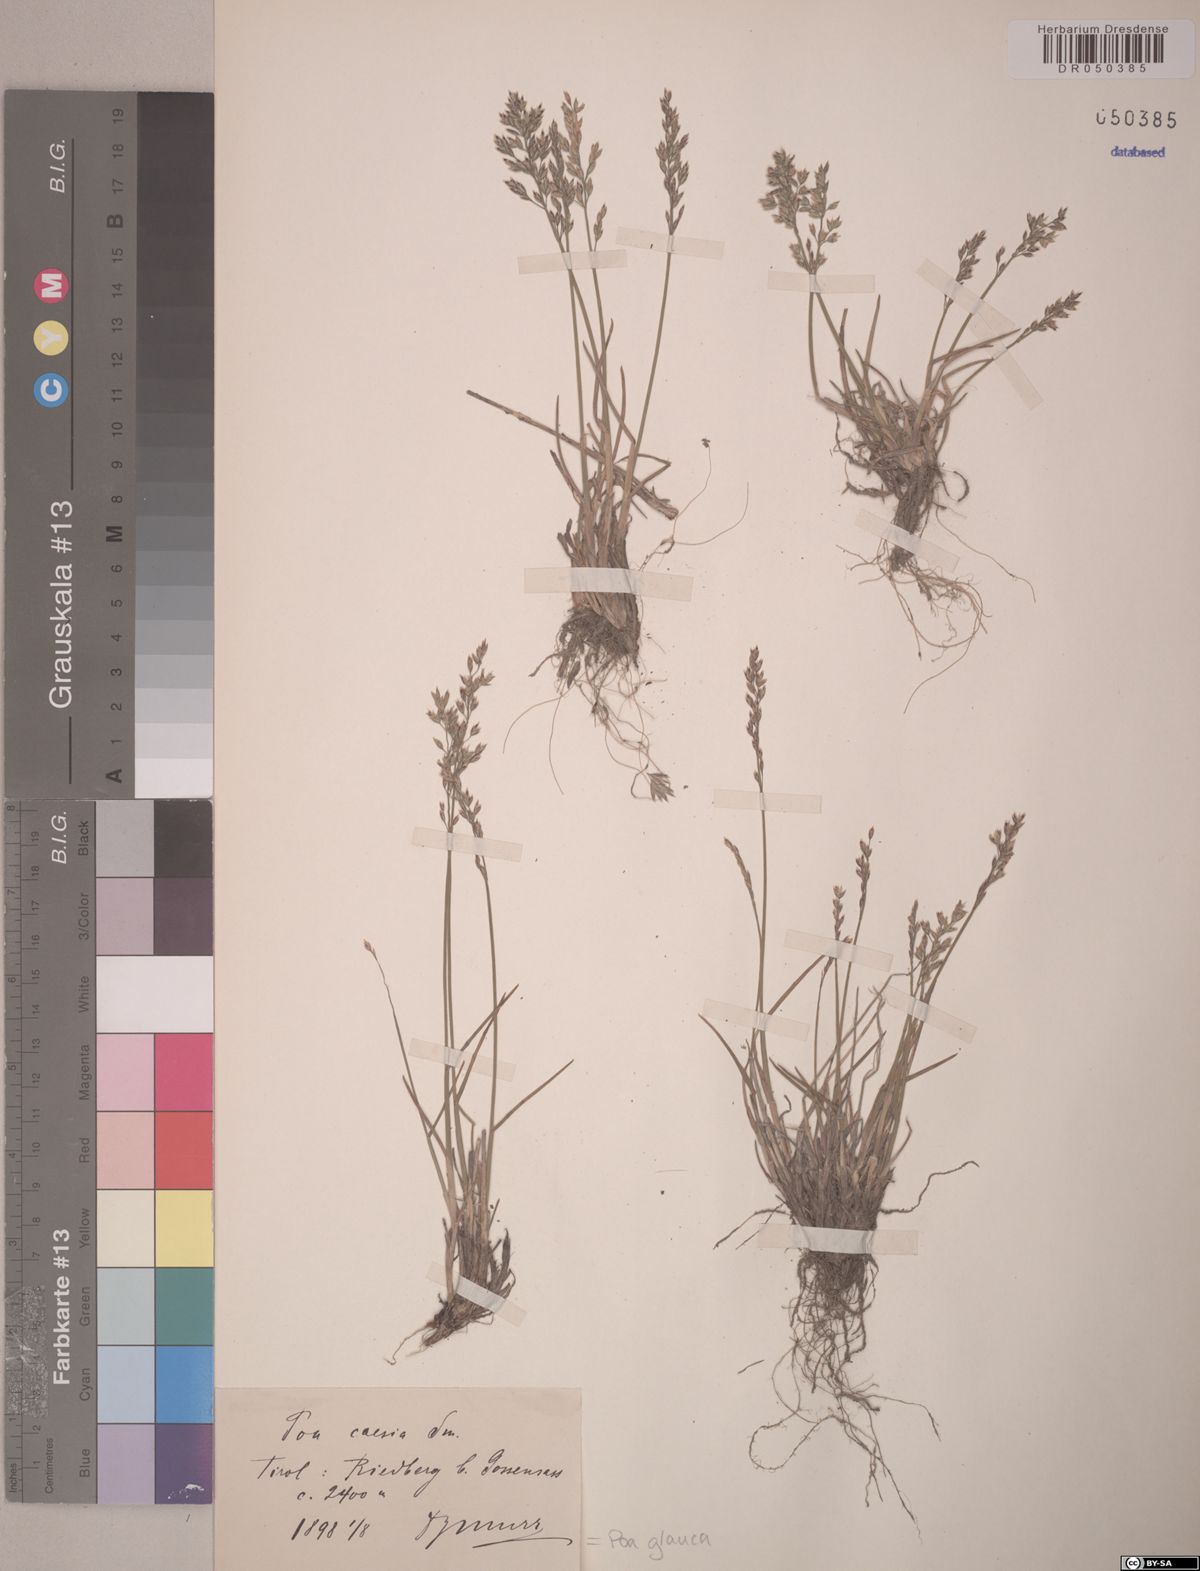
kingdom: Plantae
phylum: Tracheophyta
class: Liliopsida
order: Poales
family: Poaceae
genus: Poa
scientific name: Poa glauca
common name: Glaucous bluegrass
